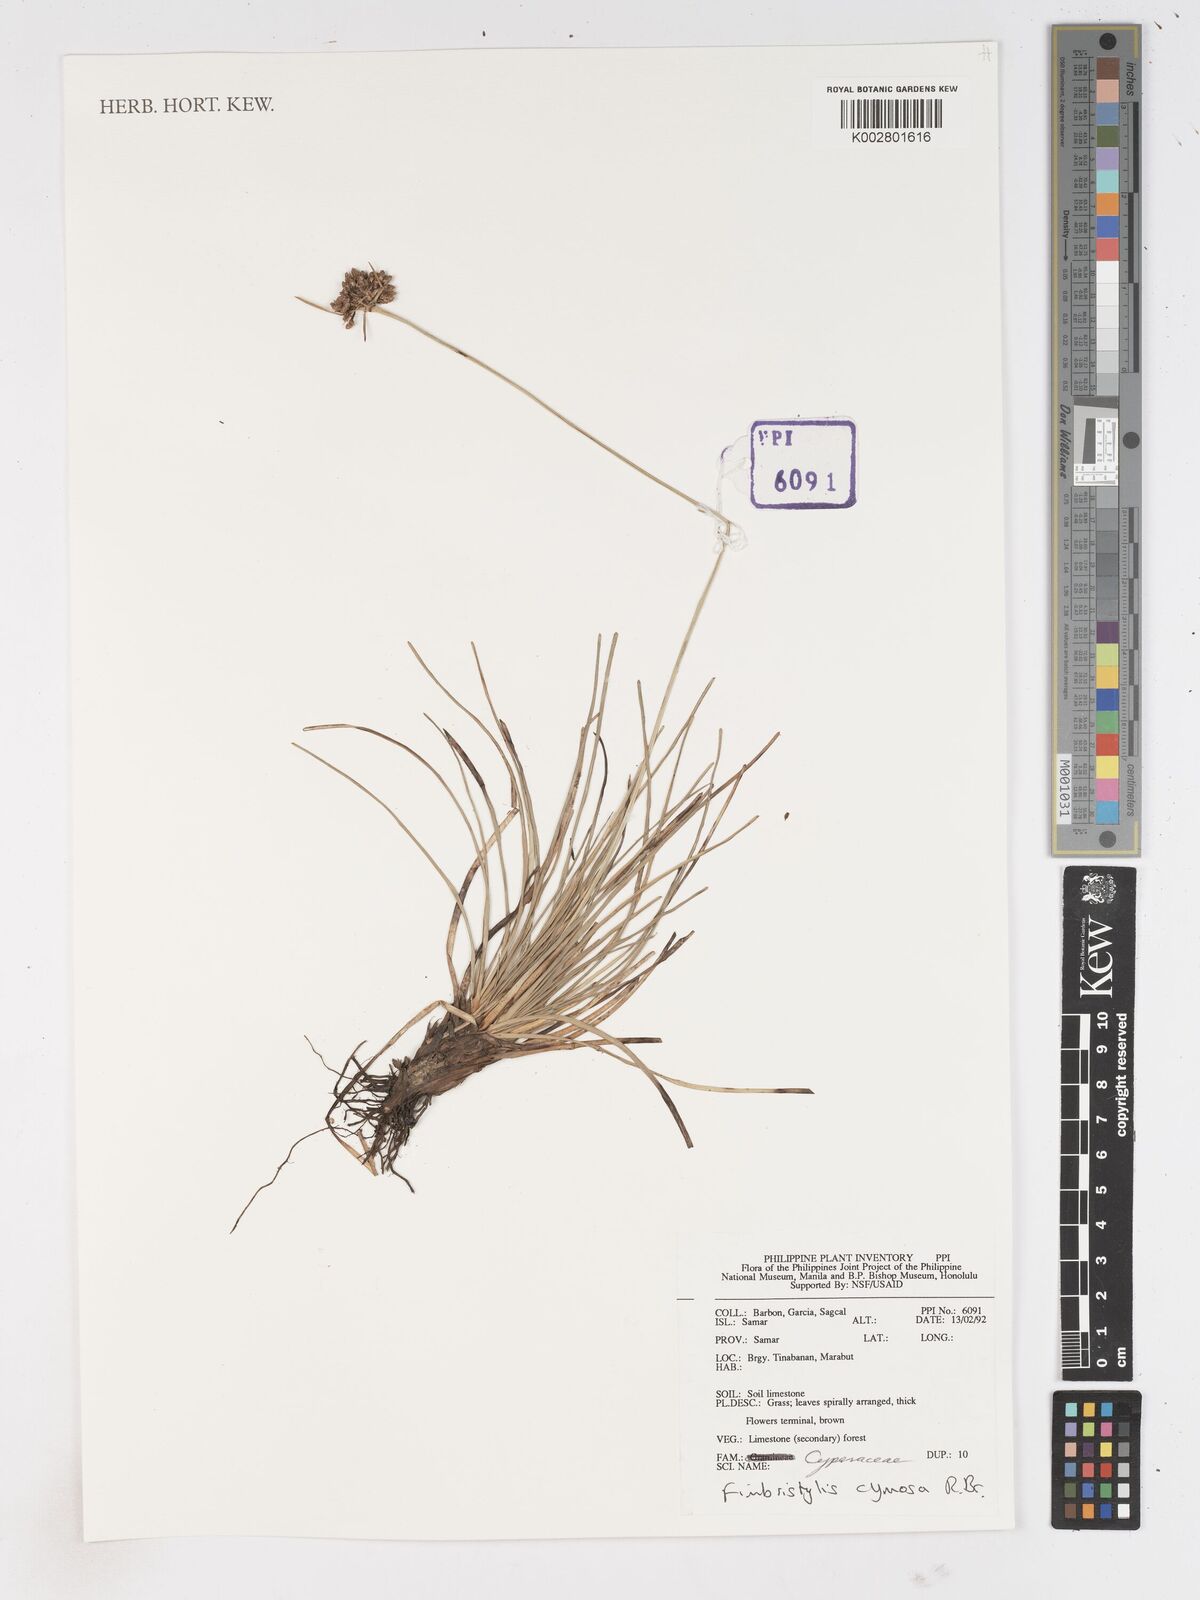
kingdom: Plantae
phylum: Tracheophyta
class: Liliopsida
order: Poales
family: Cyperaceae
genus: Fimbristylis
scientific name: Fimbristylis cymosa
